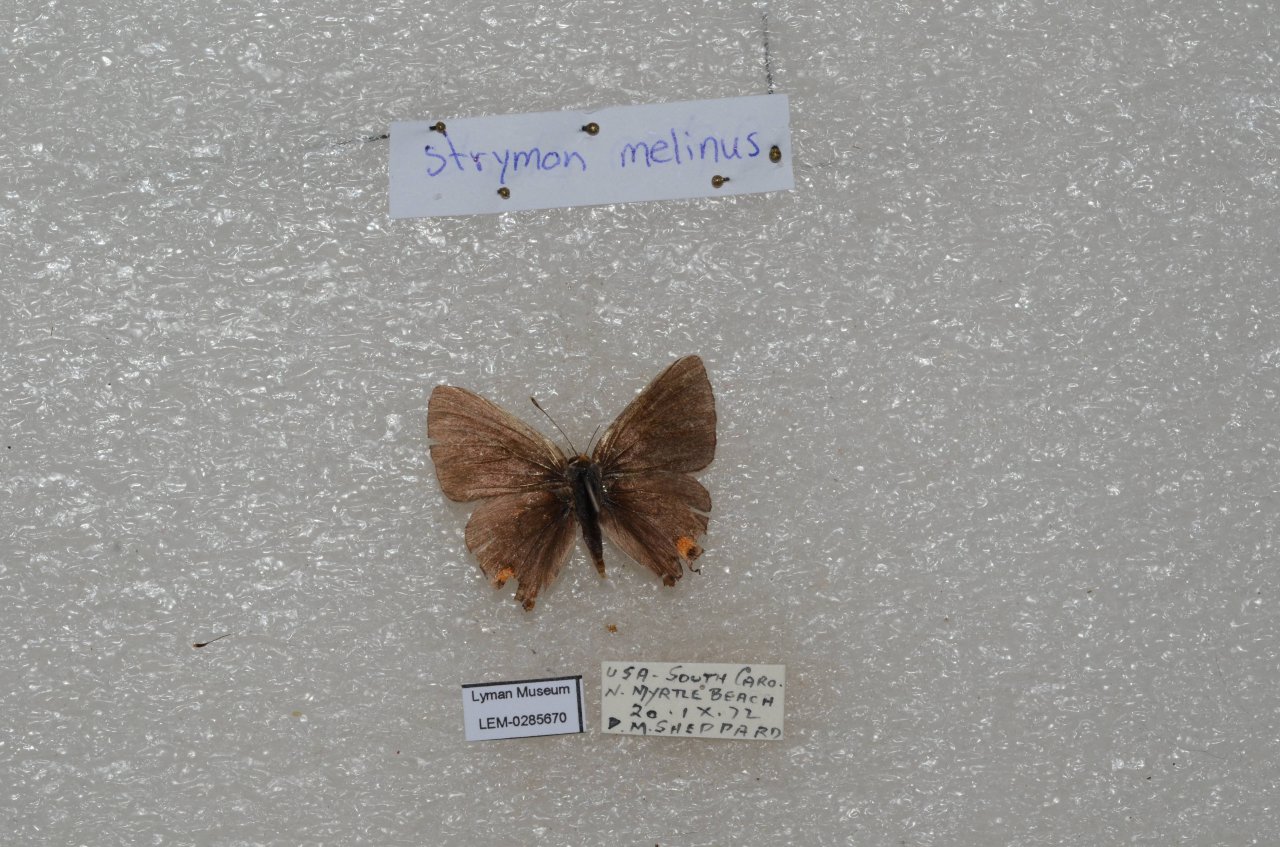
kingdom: Animalia
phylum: Arthropoda
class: Insecta
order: Lepidoptera
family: Lycaenidae
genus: Strymon
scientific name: Strymon melinus
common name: Gray Hairstreak
